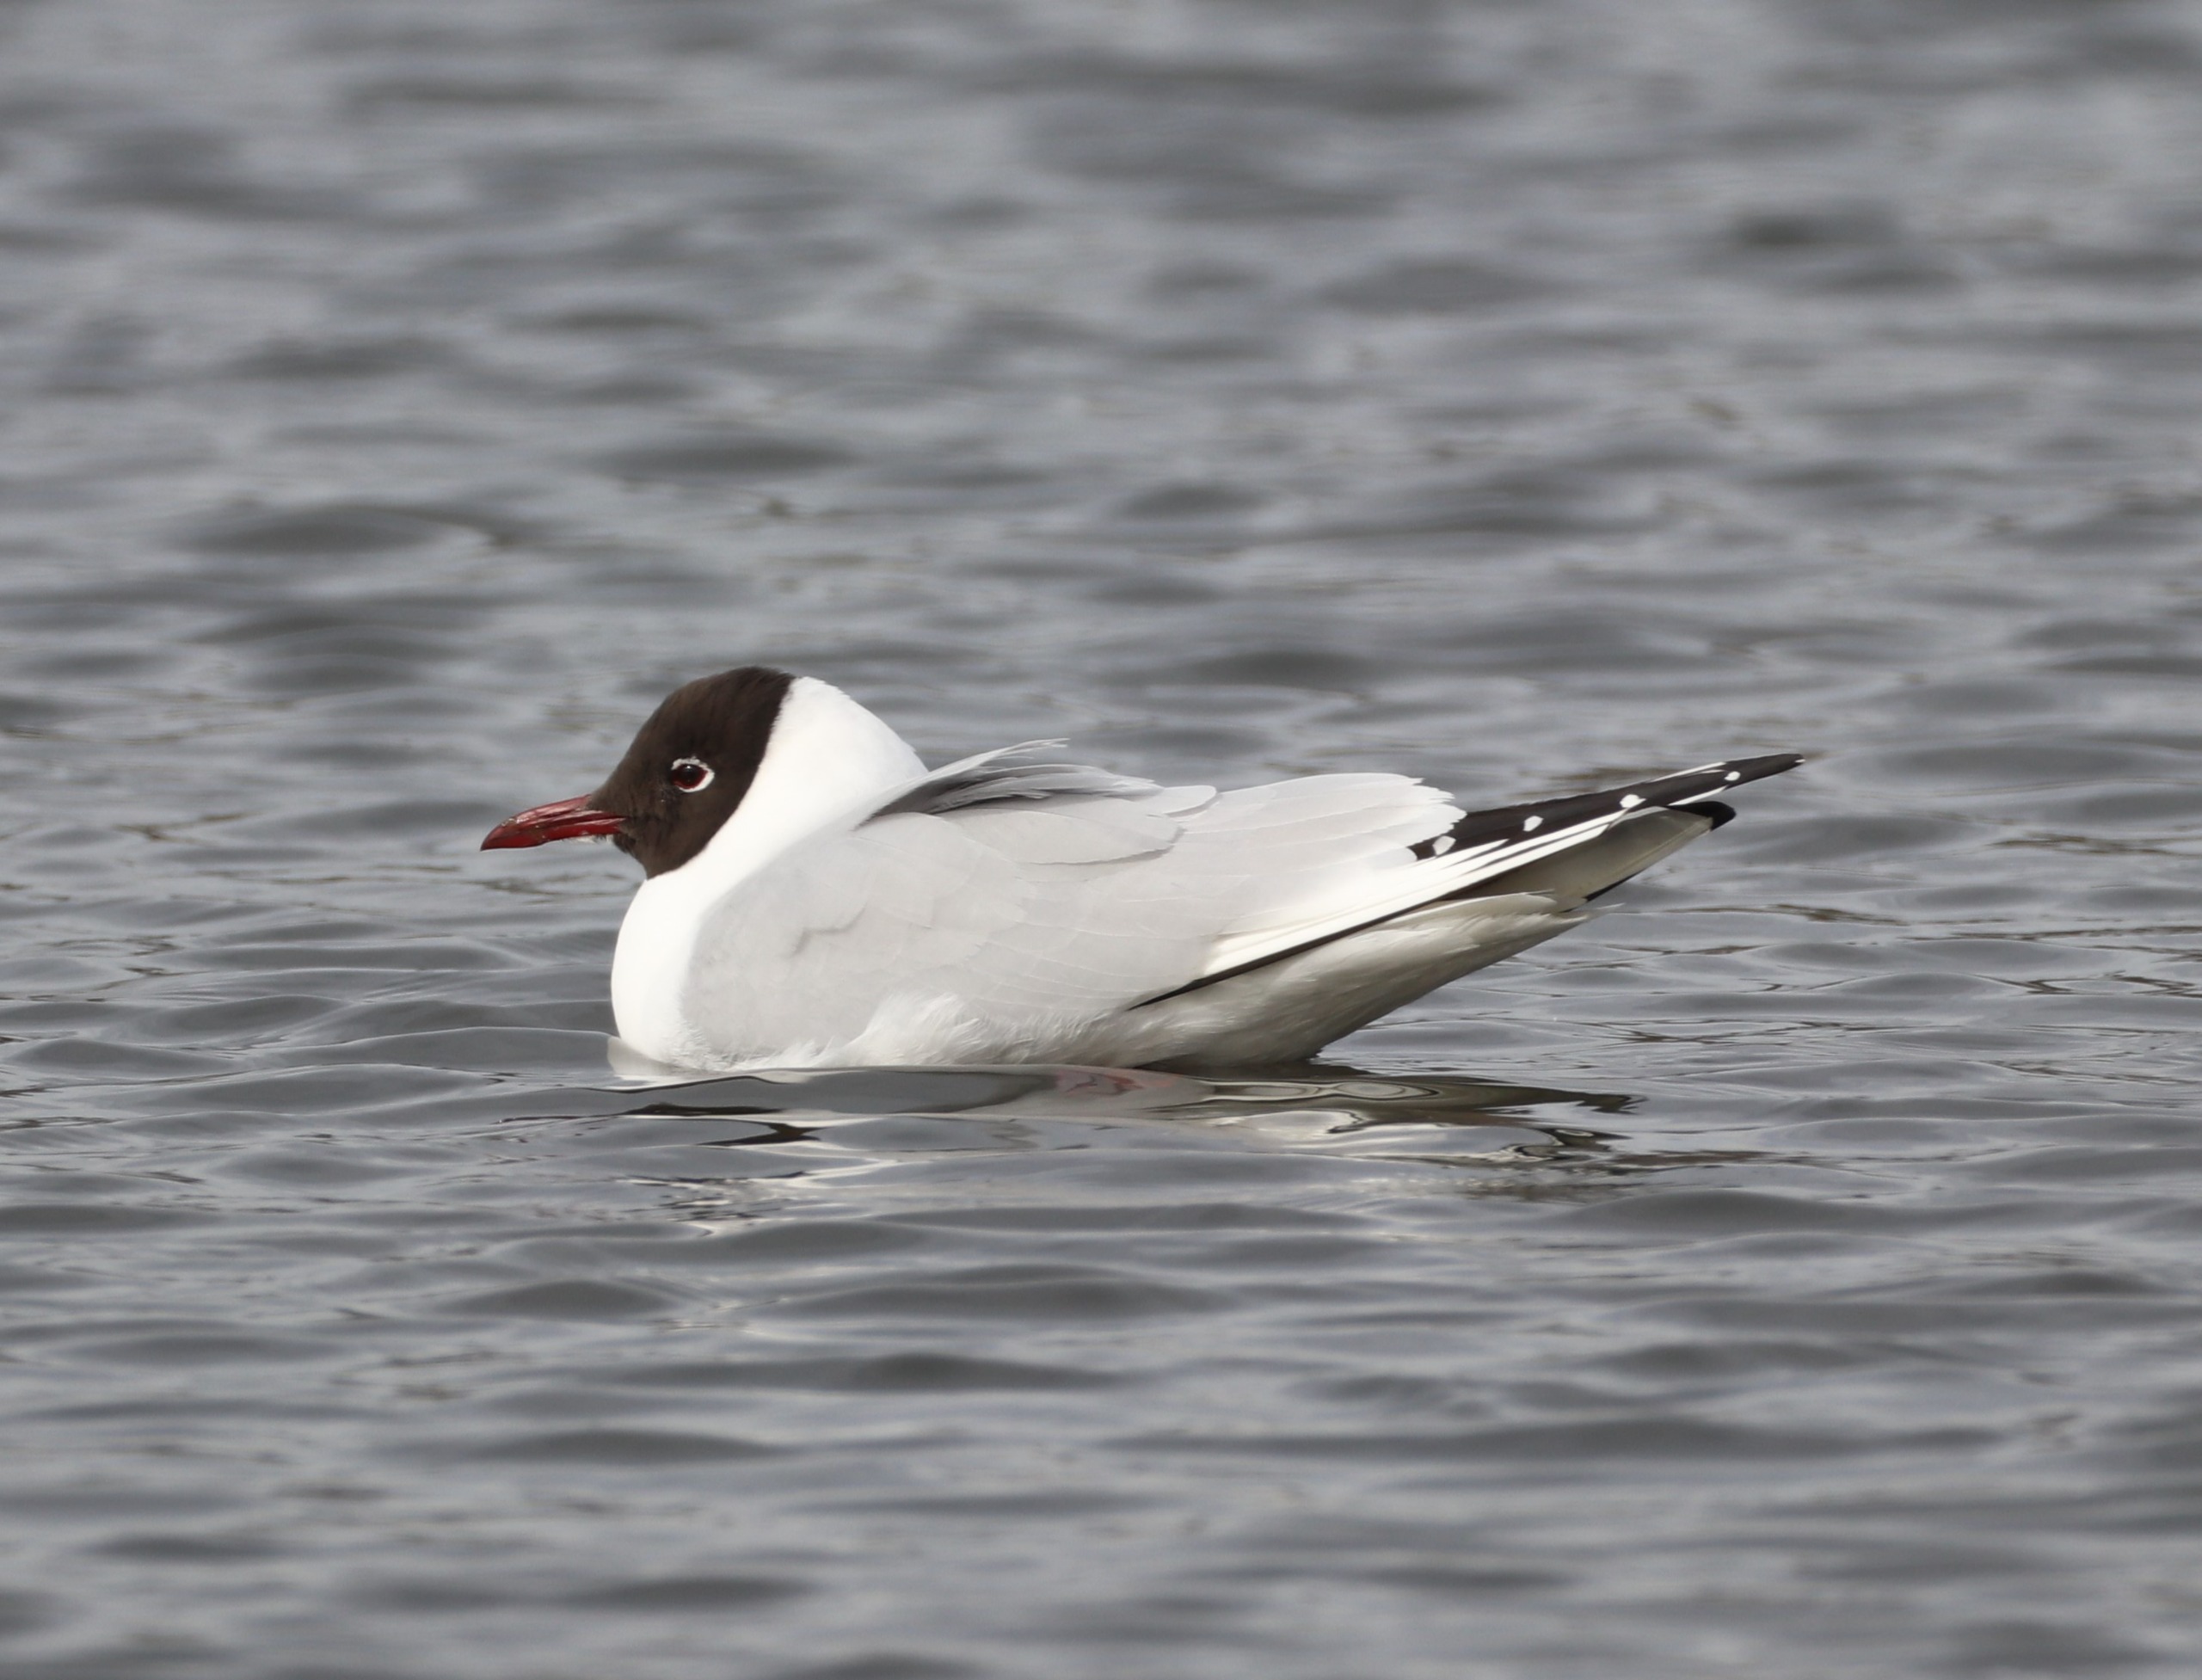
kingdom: Animalia
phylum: Chordata
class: Aves
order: Charadriiformes
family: Laridae
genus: Chroicocephalus
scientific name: Chroicocephalus ridibundus
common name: Hættemåge
